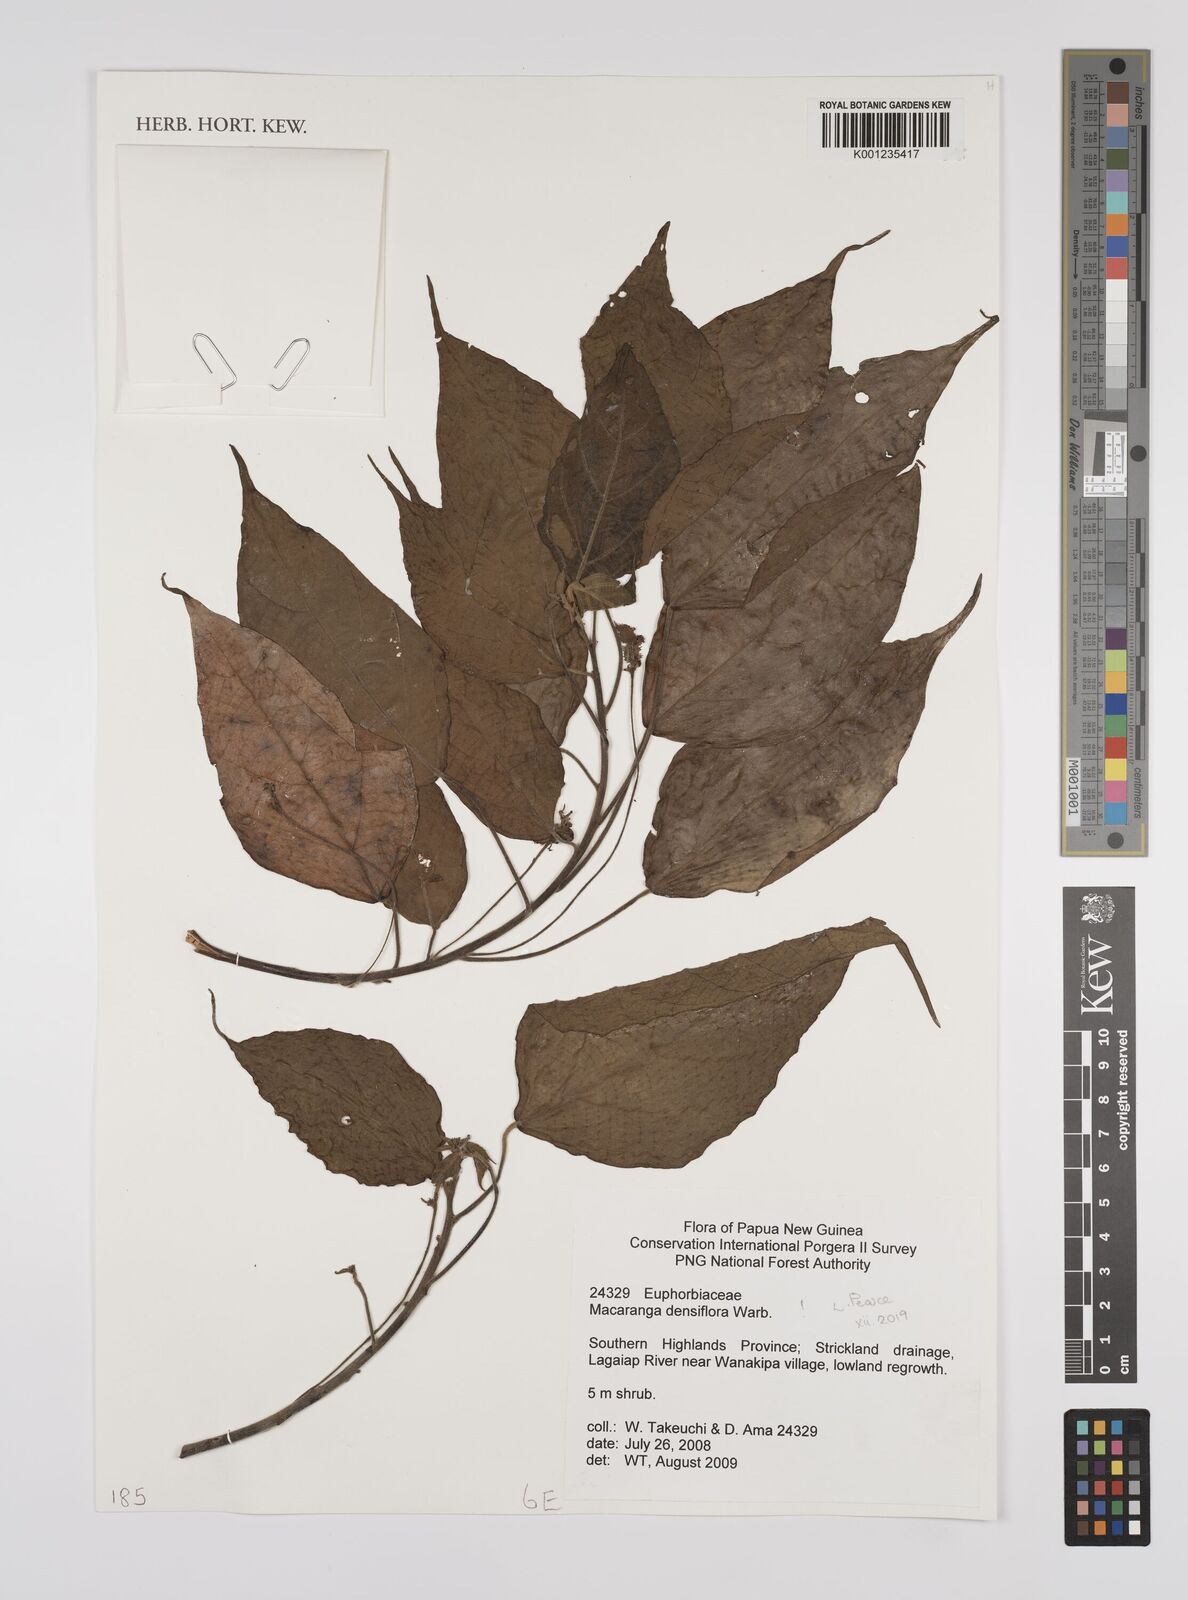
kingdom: Plantae
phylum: Tracheophyta
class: Magnoliopsida
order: Malpighiales
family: Euphorbiaceae
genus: Macaranga
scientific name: Macaranga densiflora
